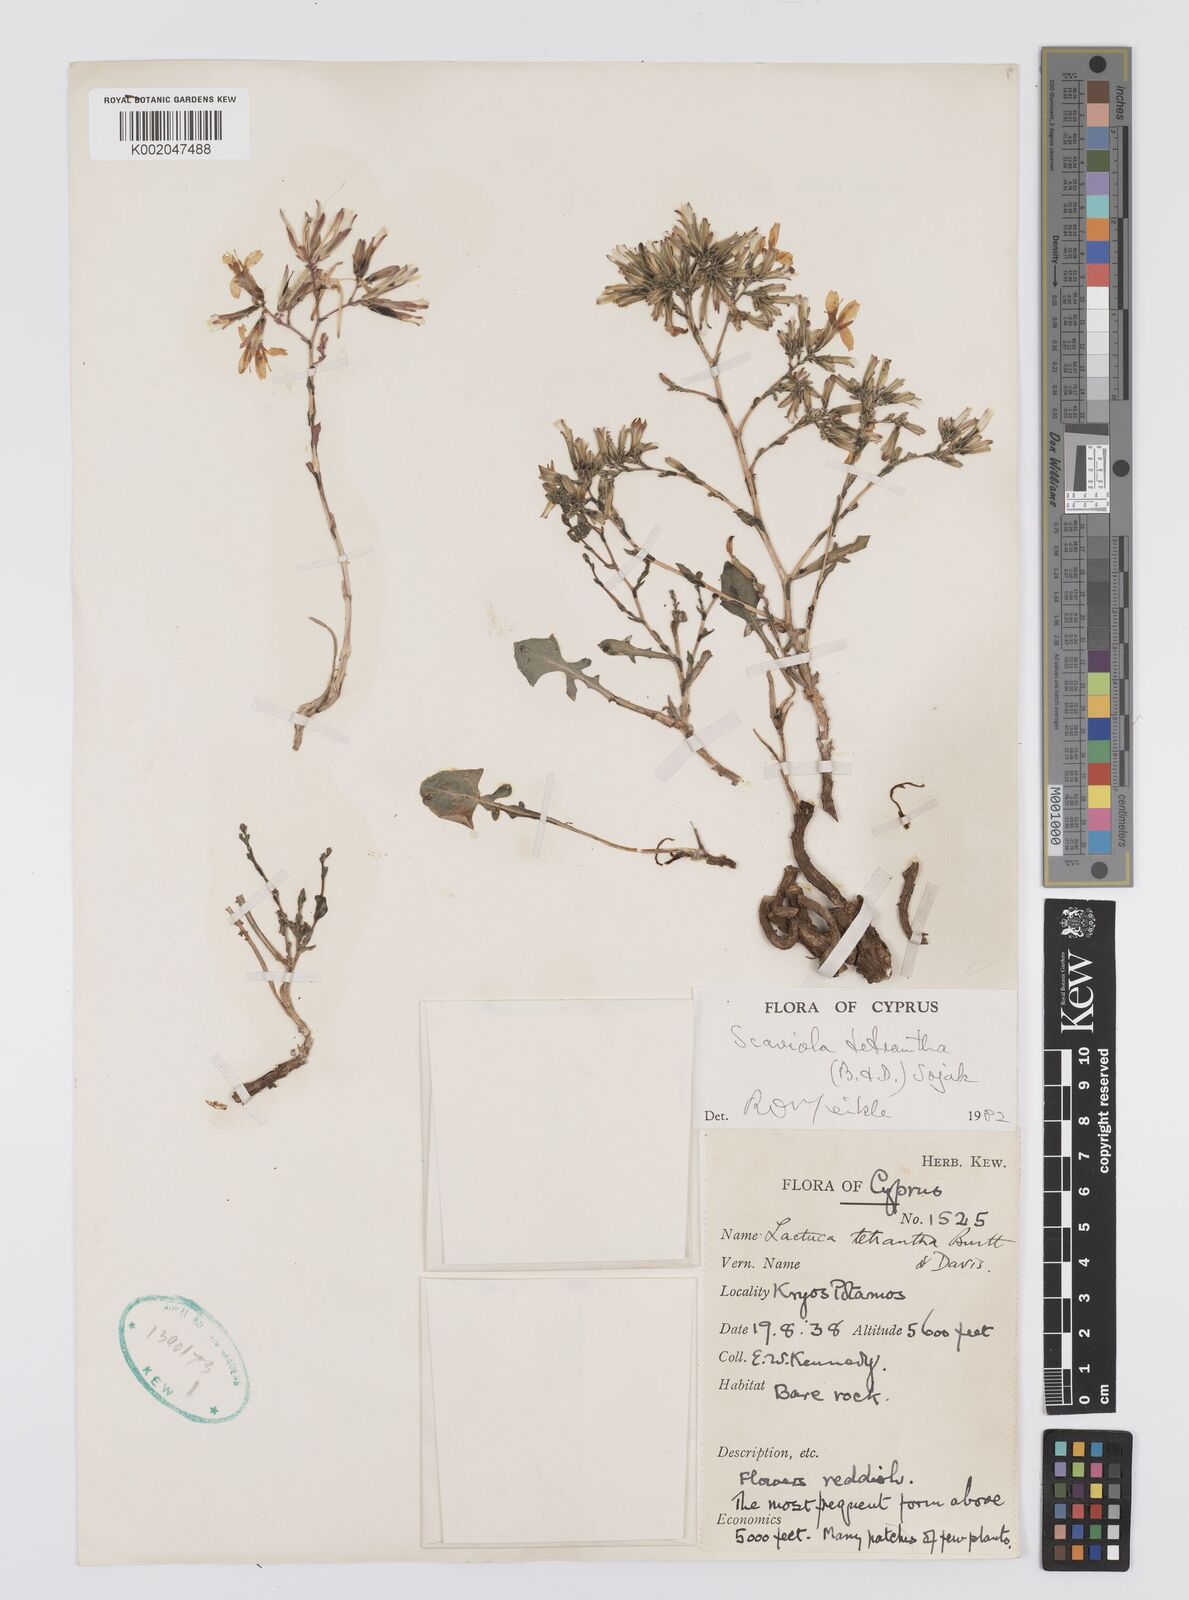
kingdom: Plantae
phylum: Tracheophyta
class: Magnoliopsida
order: Asterales
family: Asteraceae
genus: Lactuca
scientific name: Lactuca tetrantha
